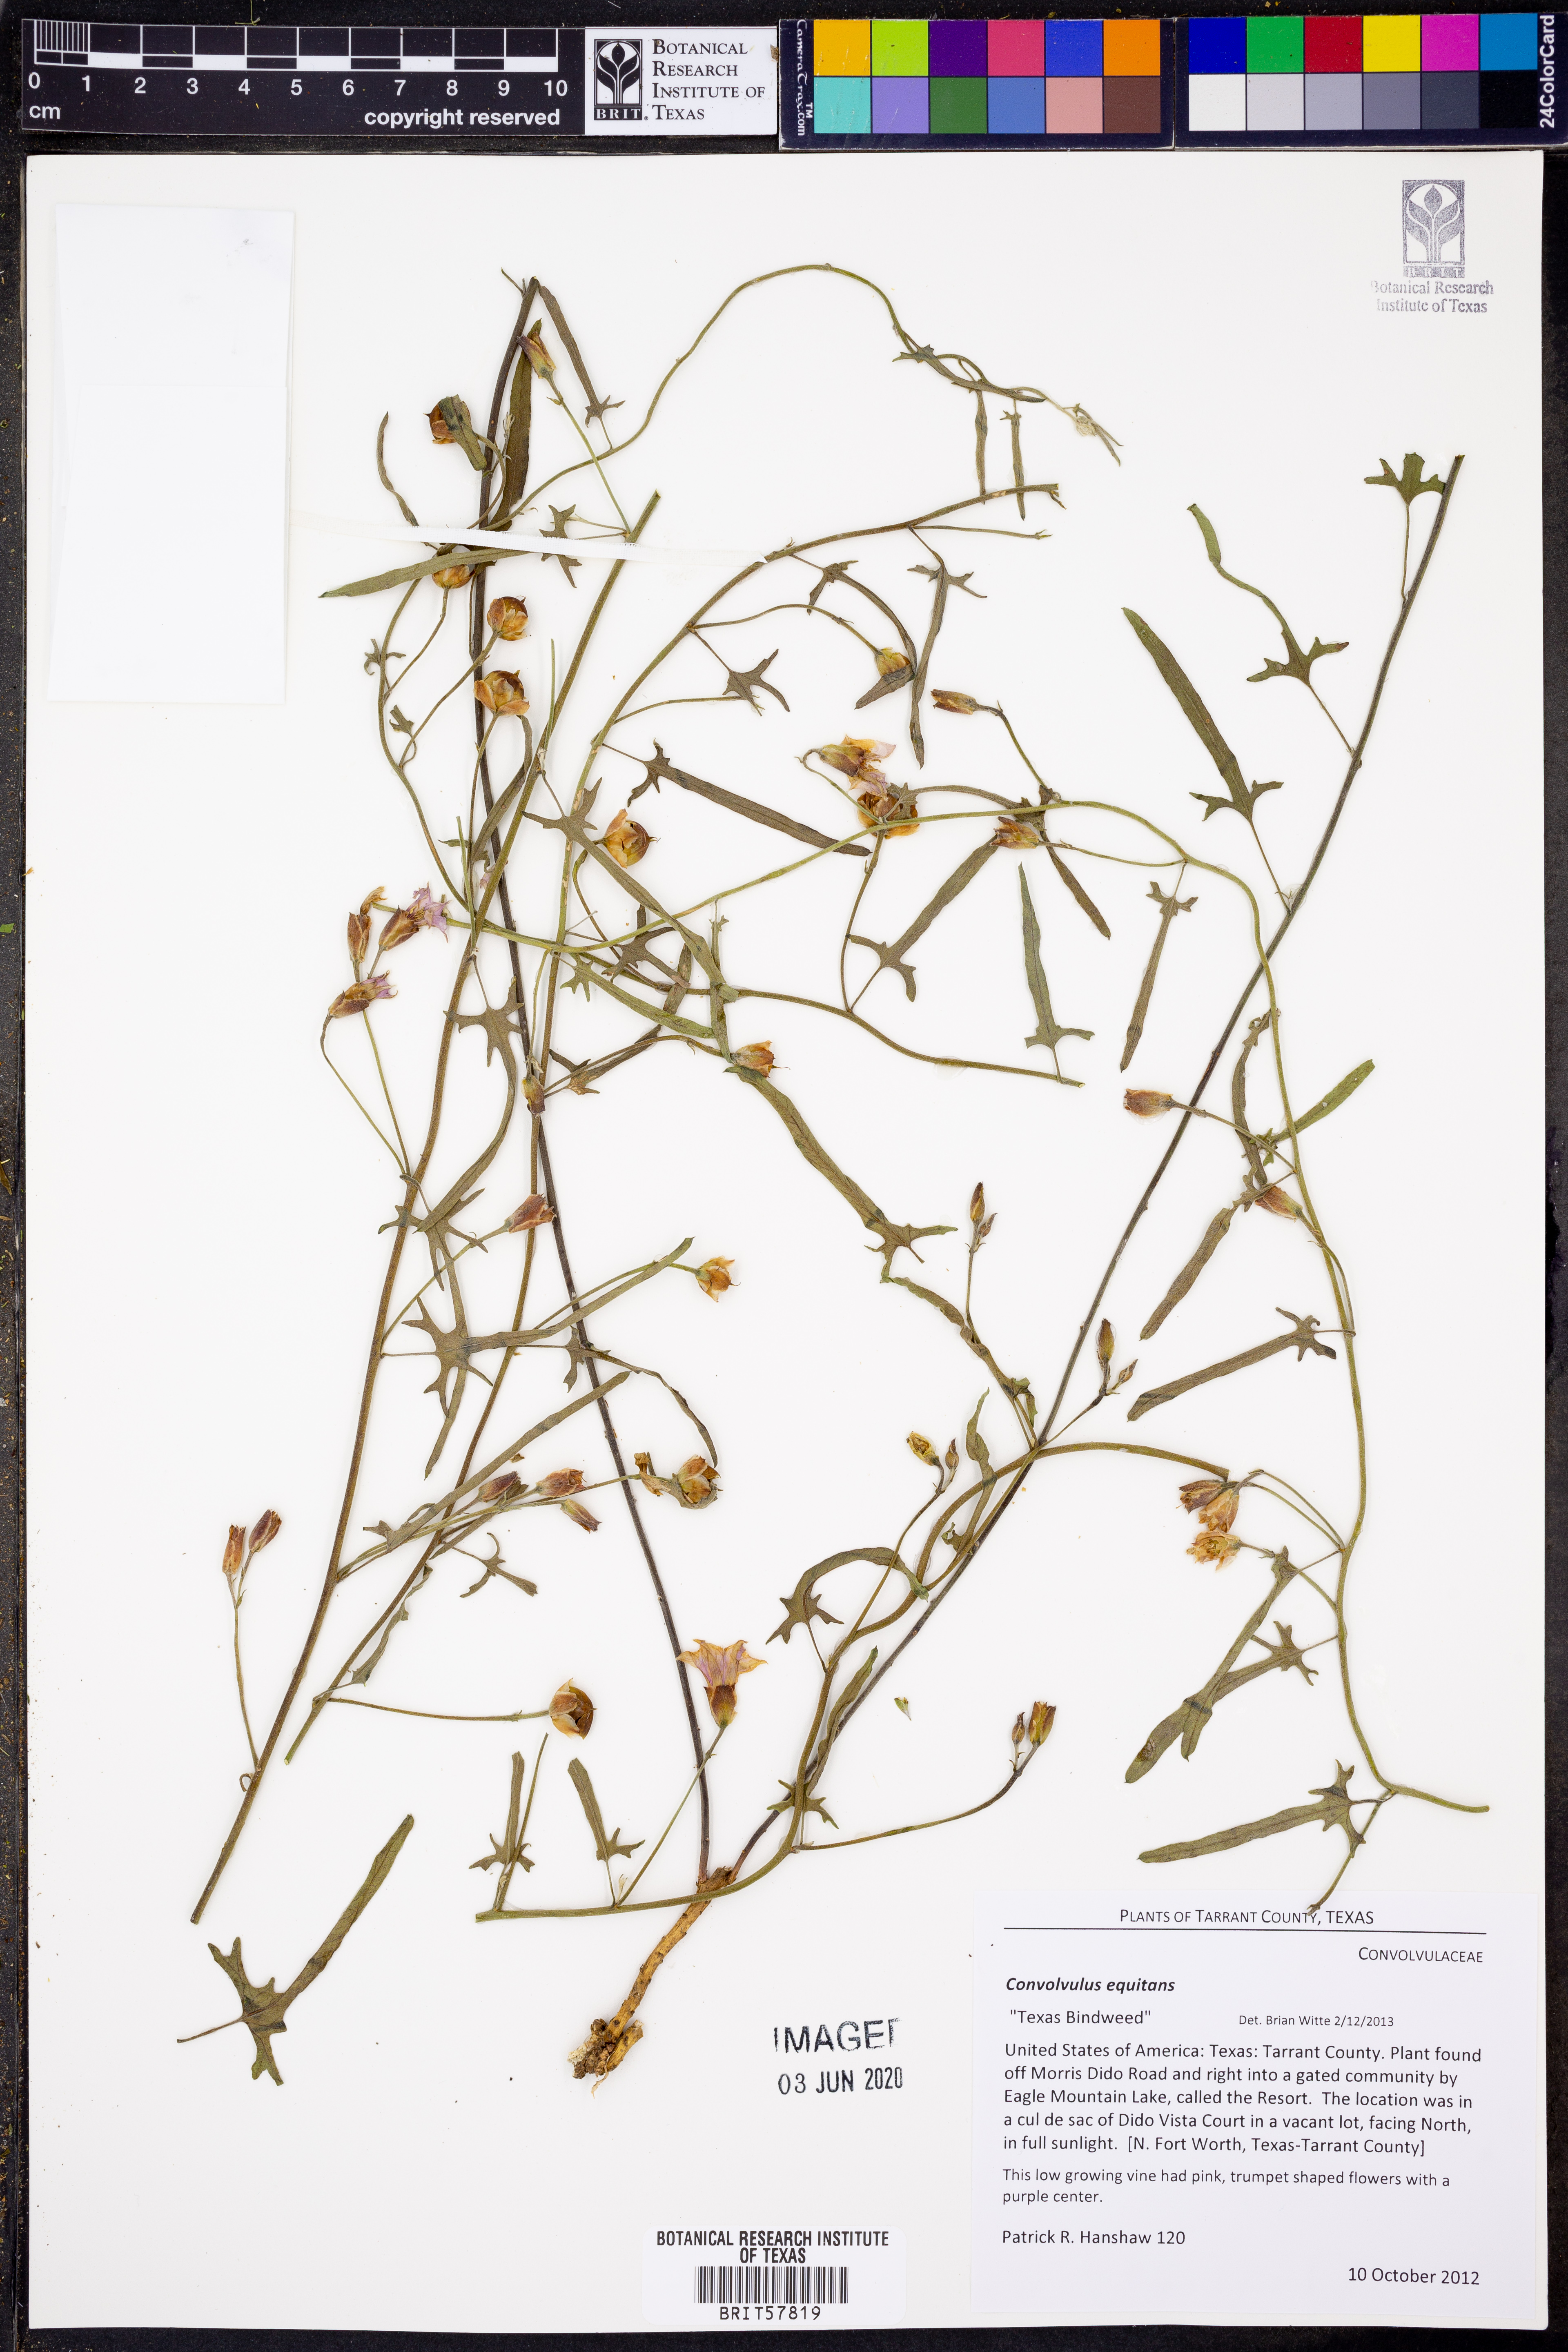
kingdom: Plantae
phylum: Tracheophyta
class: Magnoliopsida
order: Solanales
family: Convolvulaceae
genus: Convolvulus
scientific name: Convolvulus equitans
